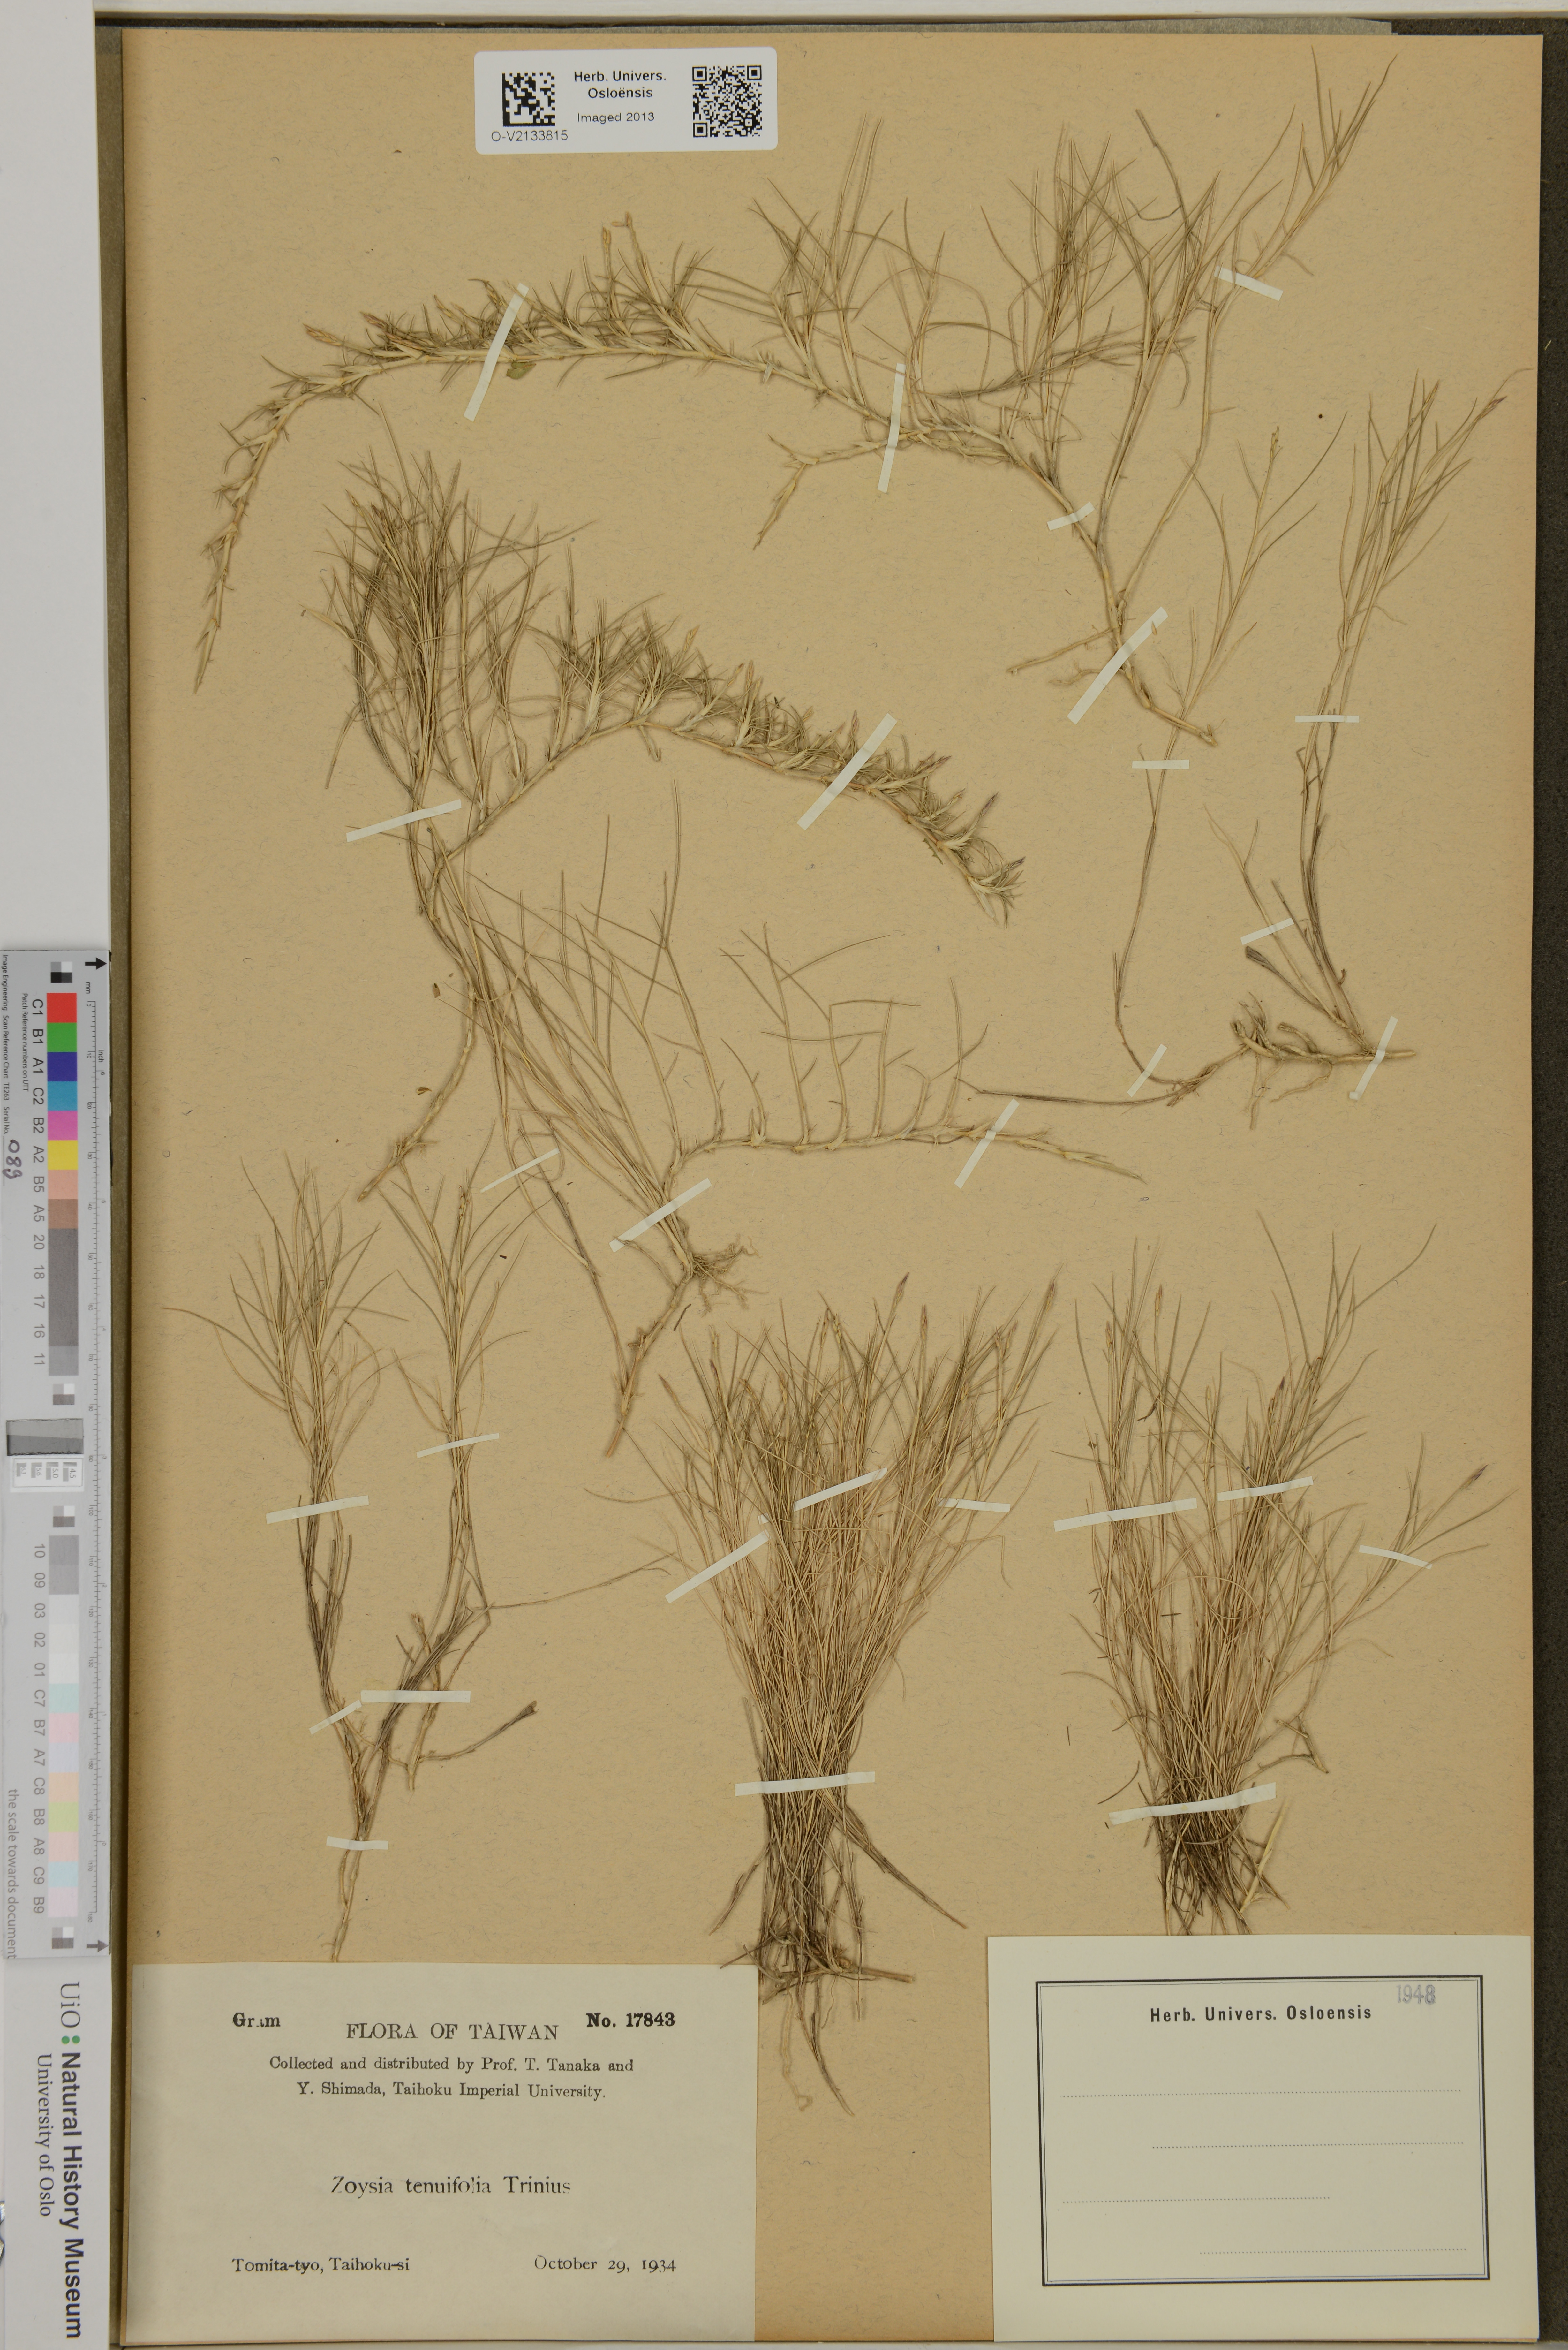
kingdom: Plantae
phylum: Tracheophyta
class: Liliopsida
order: Poales
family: Poaceae
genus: Zoysia
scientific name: Zoysia matrella
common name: Manila grass
